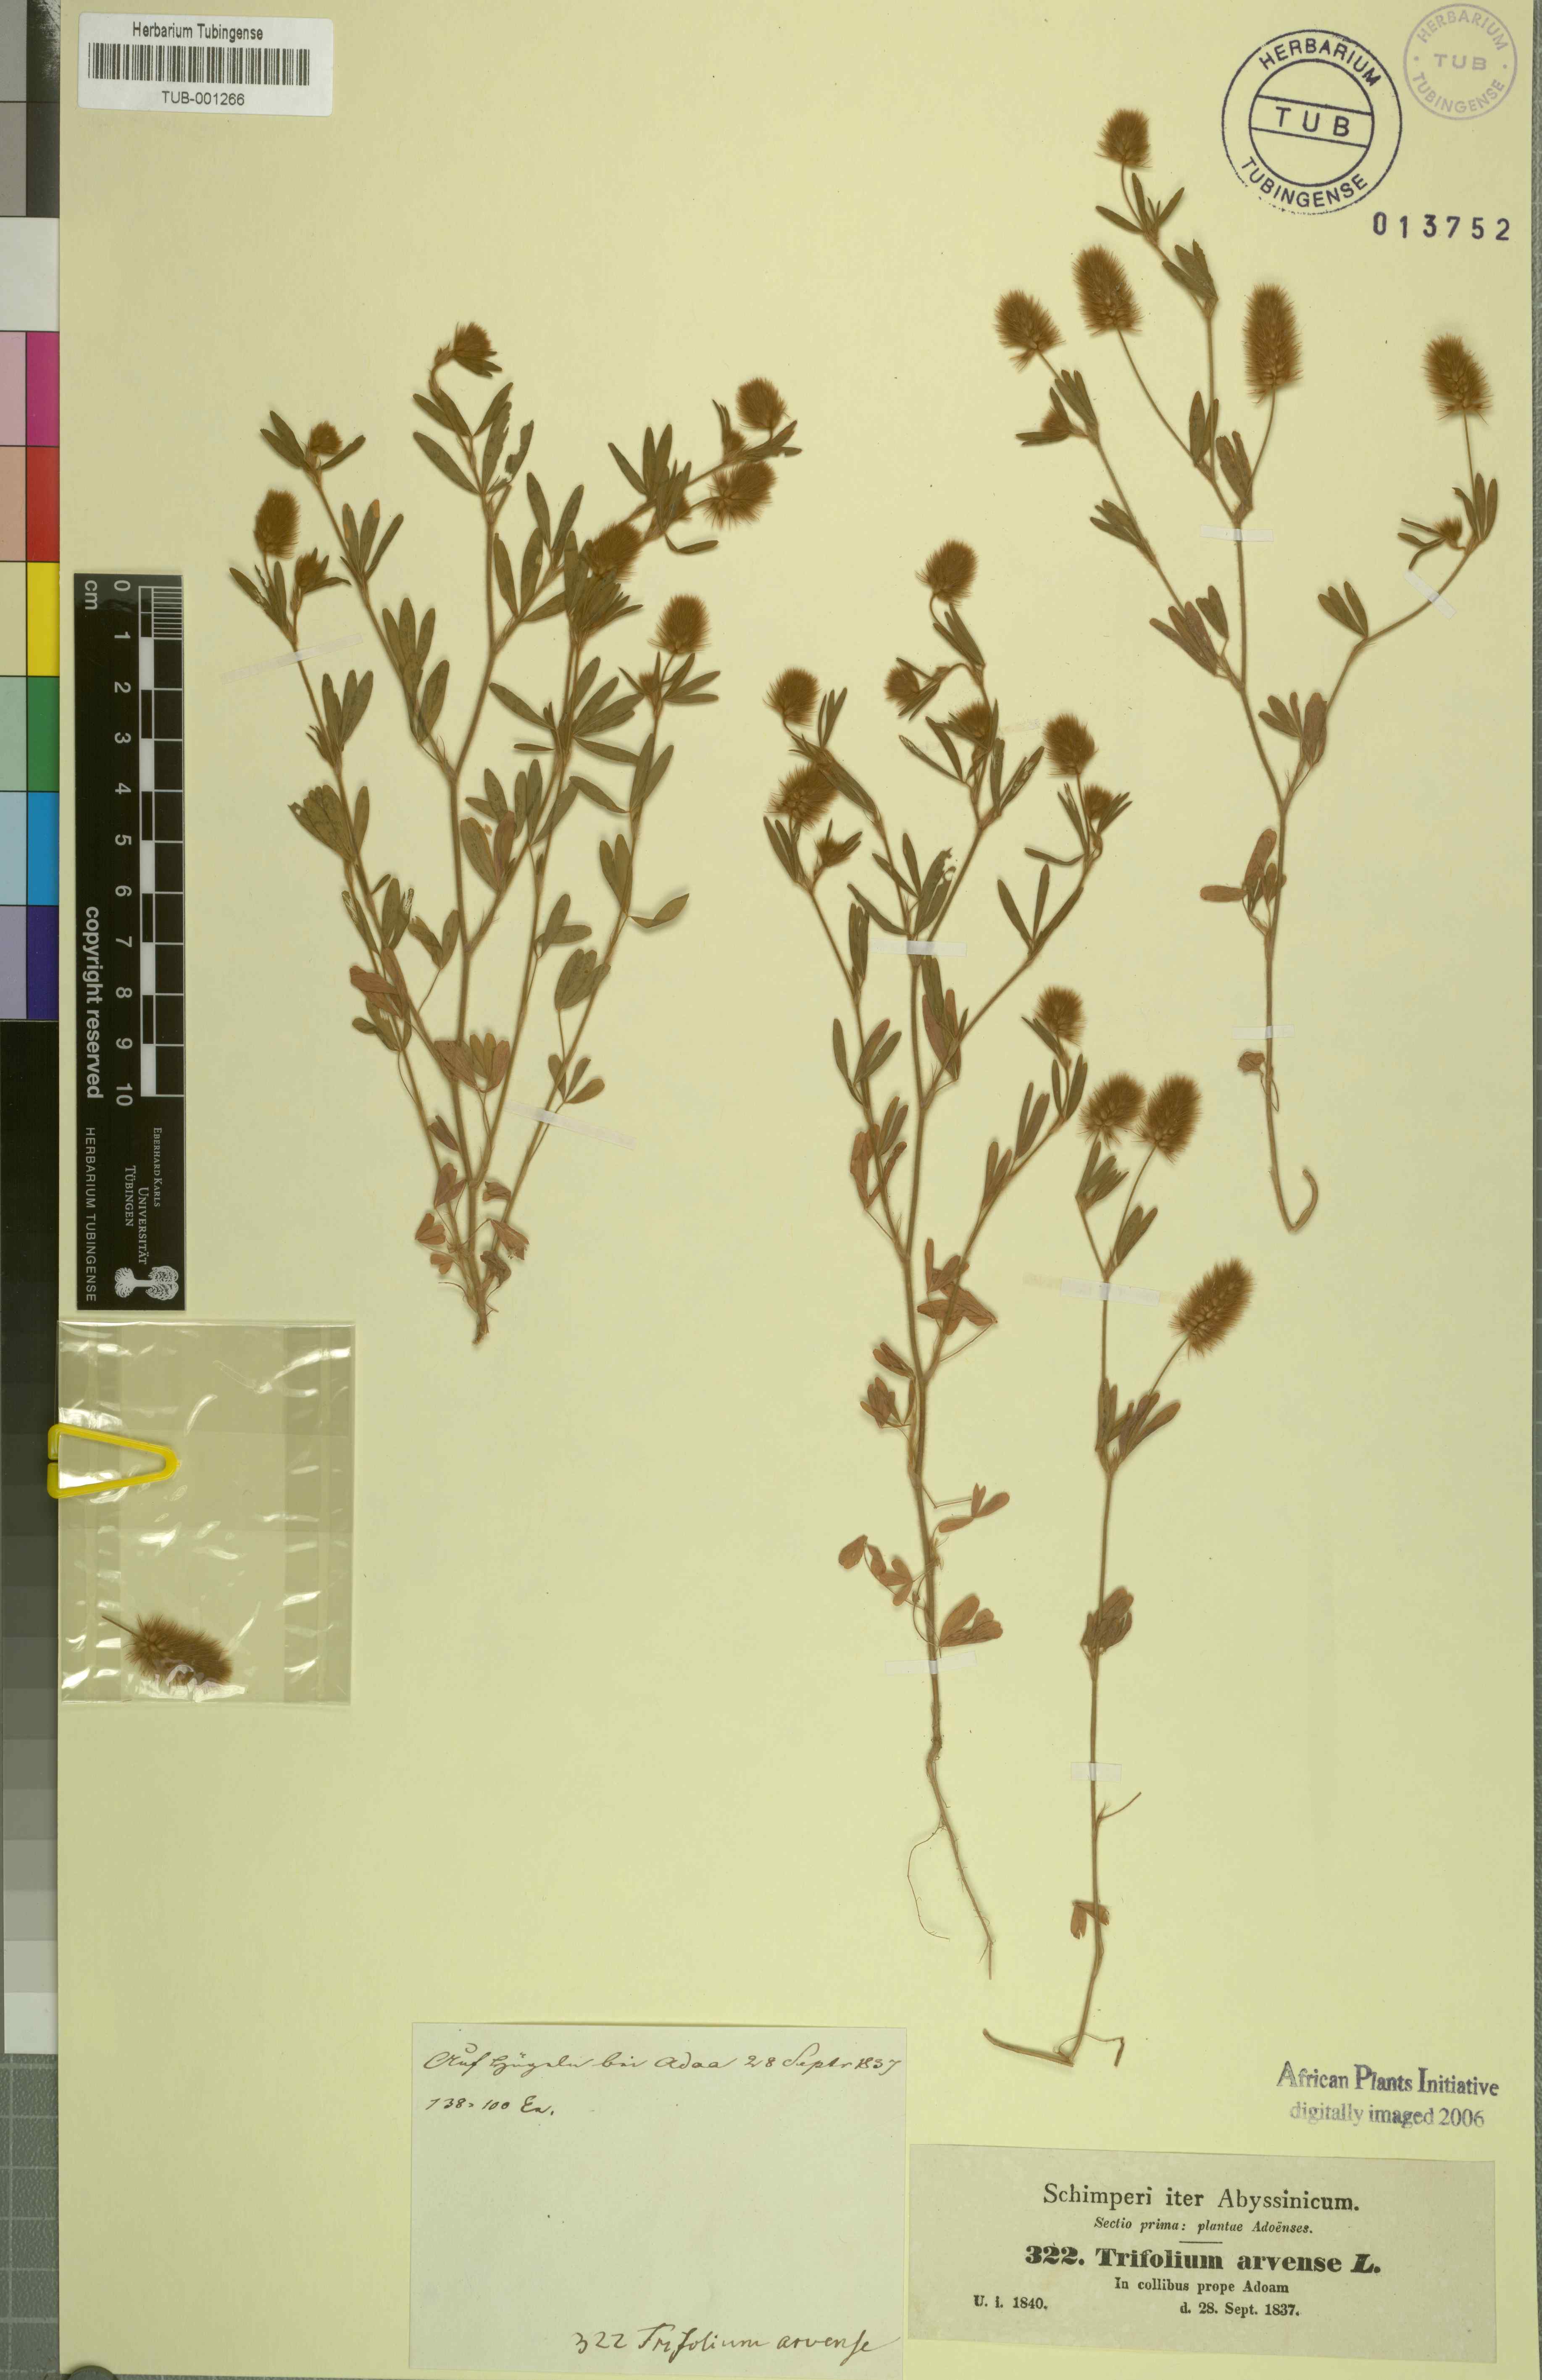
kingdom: Plantae
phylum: Tracheophyta
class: Magnoliopsida
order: Fabales
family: Fabaceae
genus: Trifolium
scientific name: Trifolium arvense
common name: Hare's-foot clover
